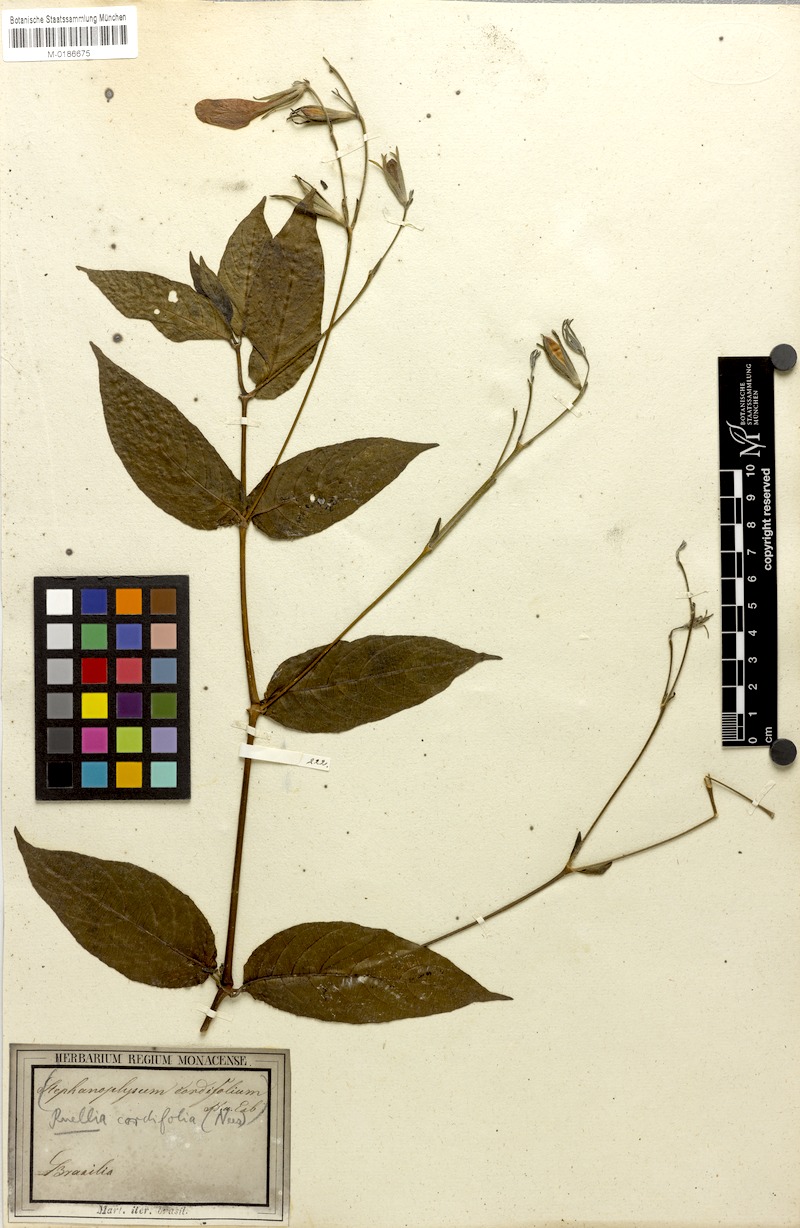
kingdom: Plantae
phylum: Tracheophyta
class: Magnoliopsida
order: Lamiales
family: Acanthaceae
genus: Strobilanthes
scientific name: Strobilanthes cordifolia
